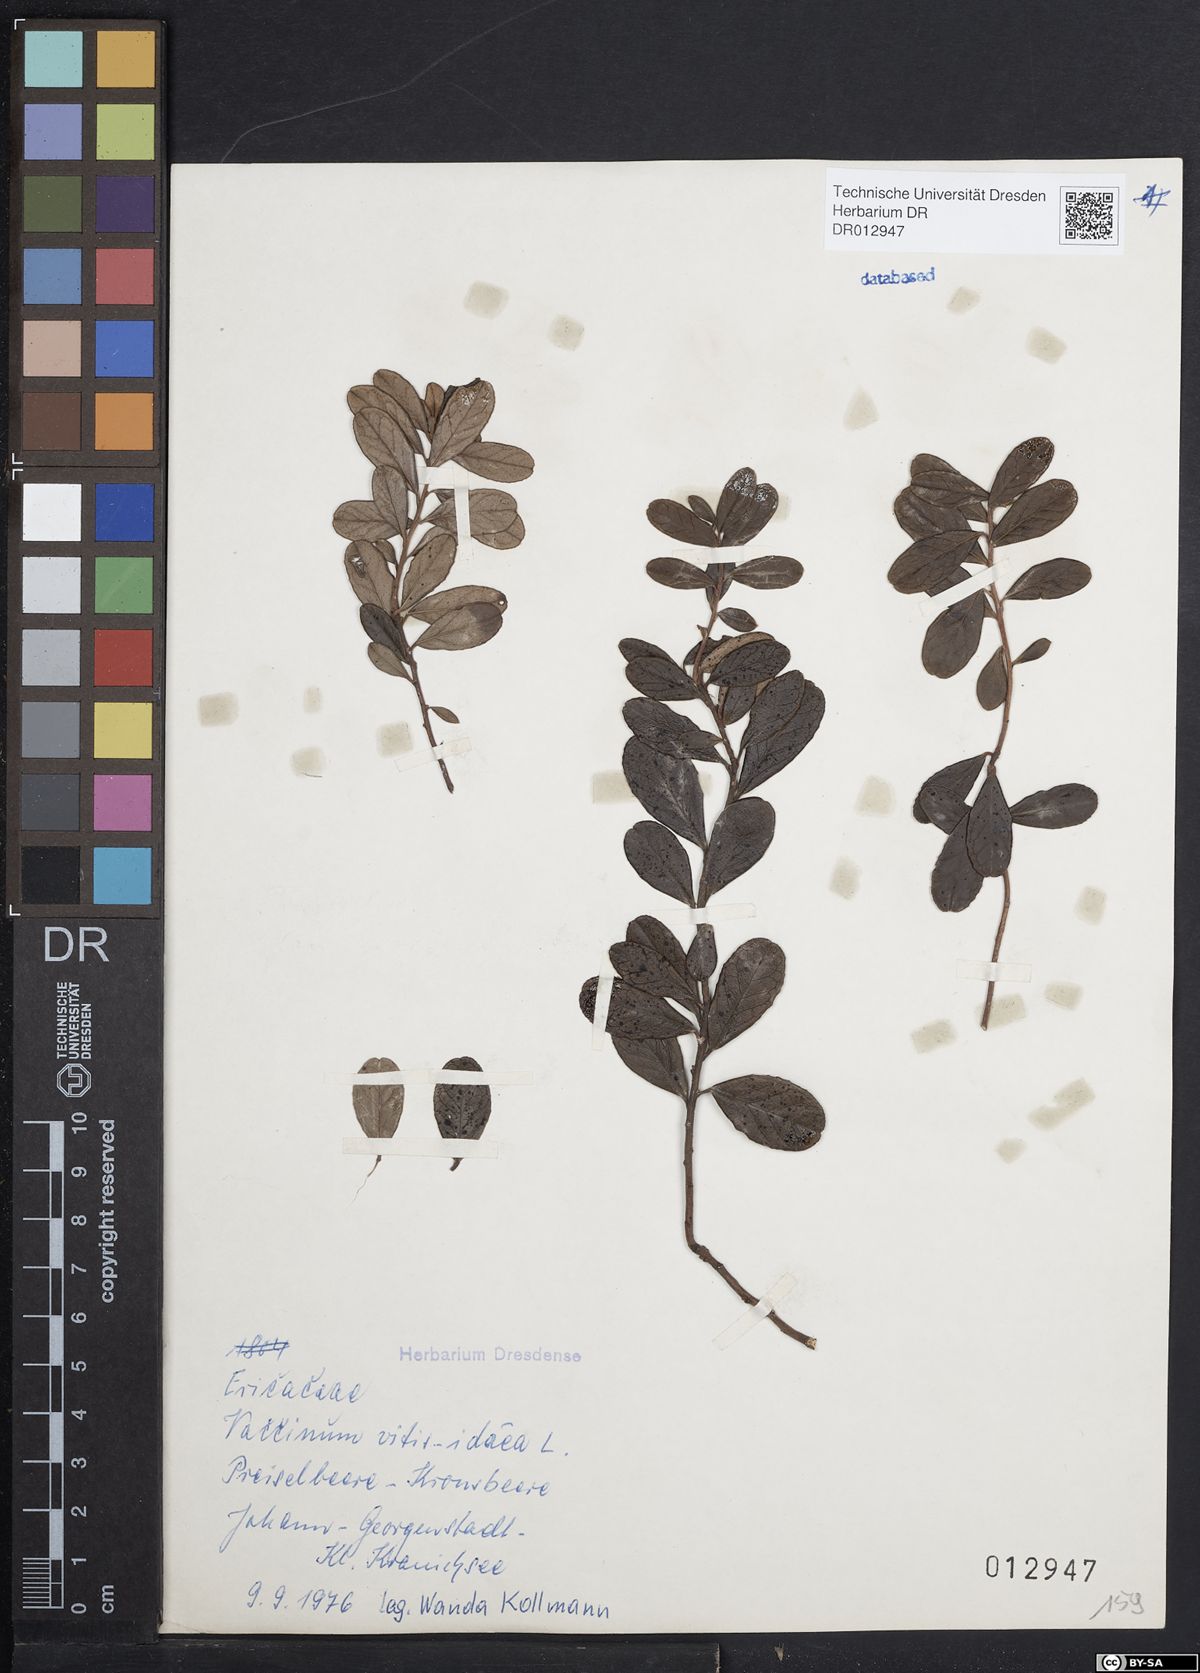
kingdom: Plantae
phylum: Tracheophyta
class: Magnoliopsida
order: Ericales
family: Ericaceae
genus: Vaccinium
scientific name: Vaccinium vitis-idaea
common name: Cowberry
